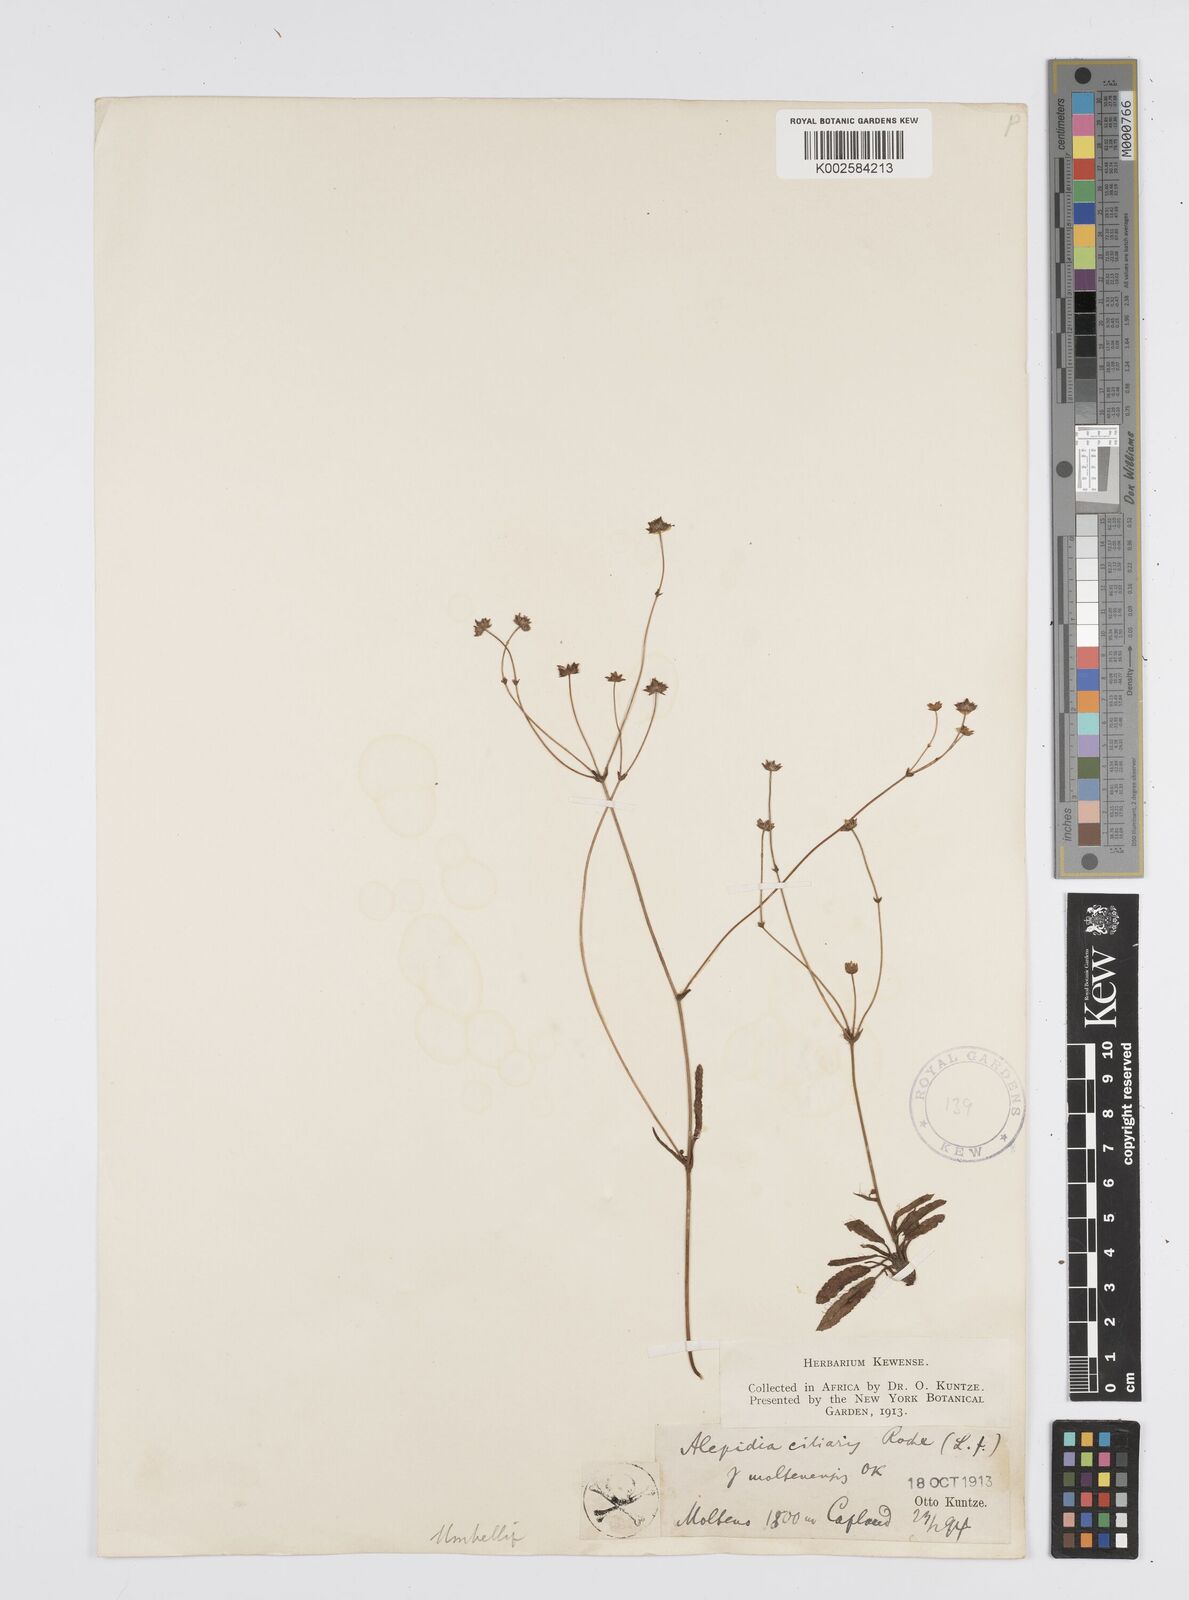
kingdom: Plantae
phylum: Tracheophyta
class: Magnoliopsida
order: Apiales
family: Apiaceae
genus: Alepidea
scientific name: Alepidea serrata
